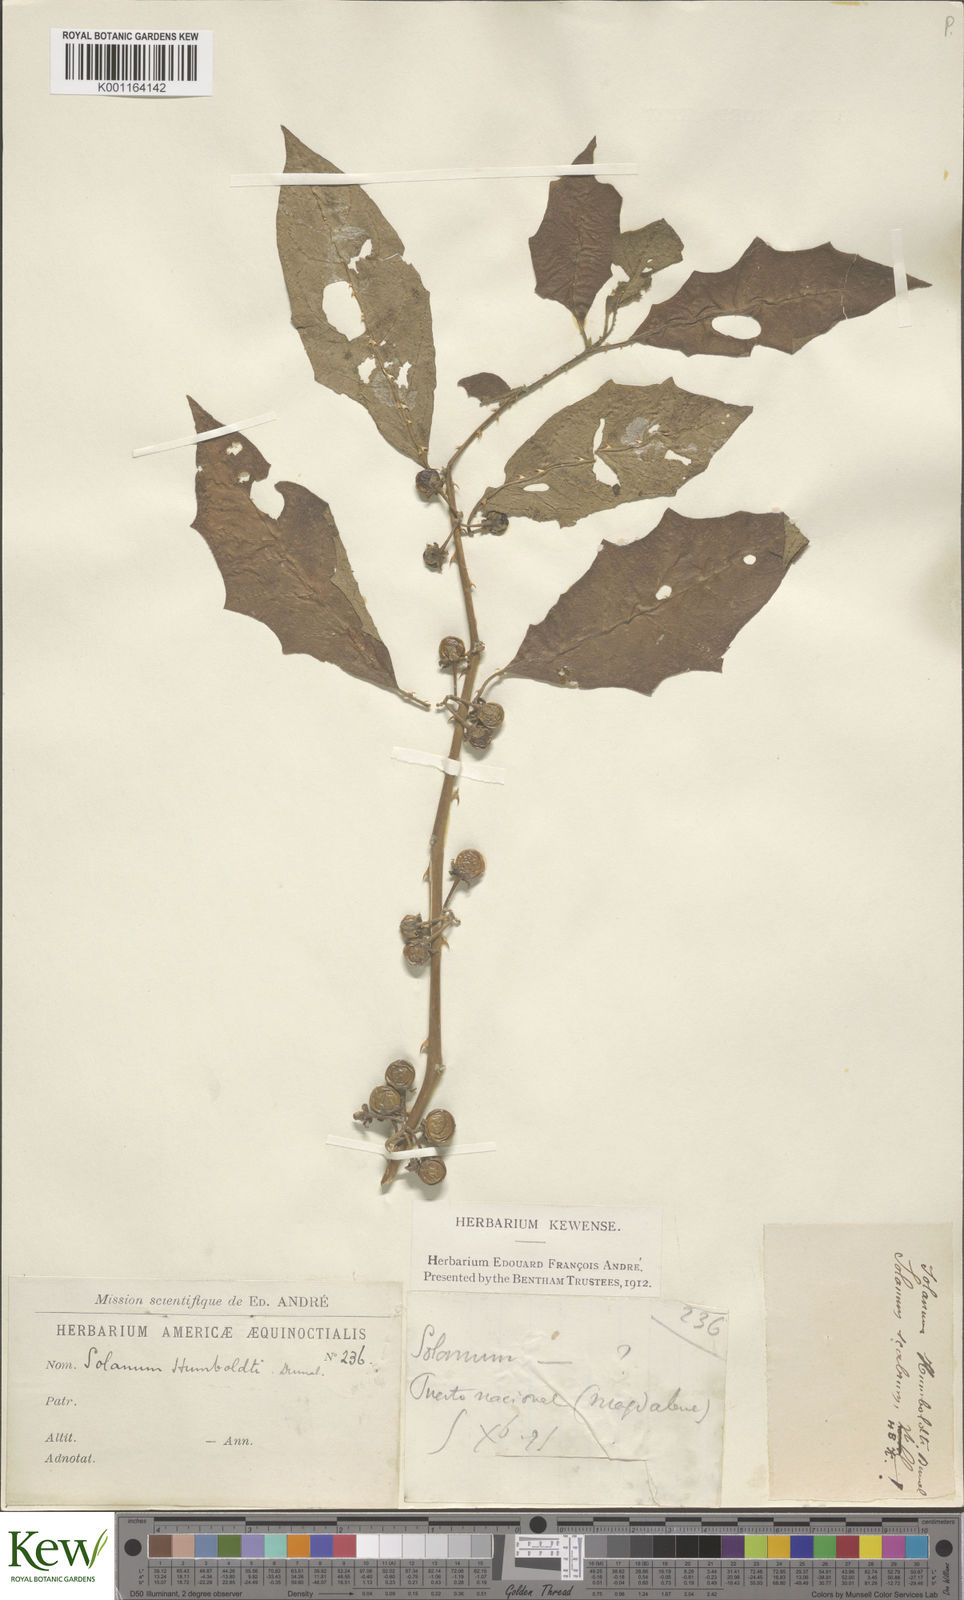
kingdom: Plantae
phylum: Tracheophyta
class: Magnoliopsida
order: Solanales
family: Solanaceae
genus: Solanum
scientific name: Solanum volubile
